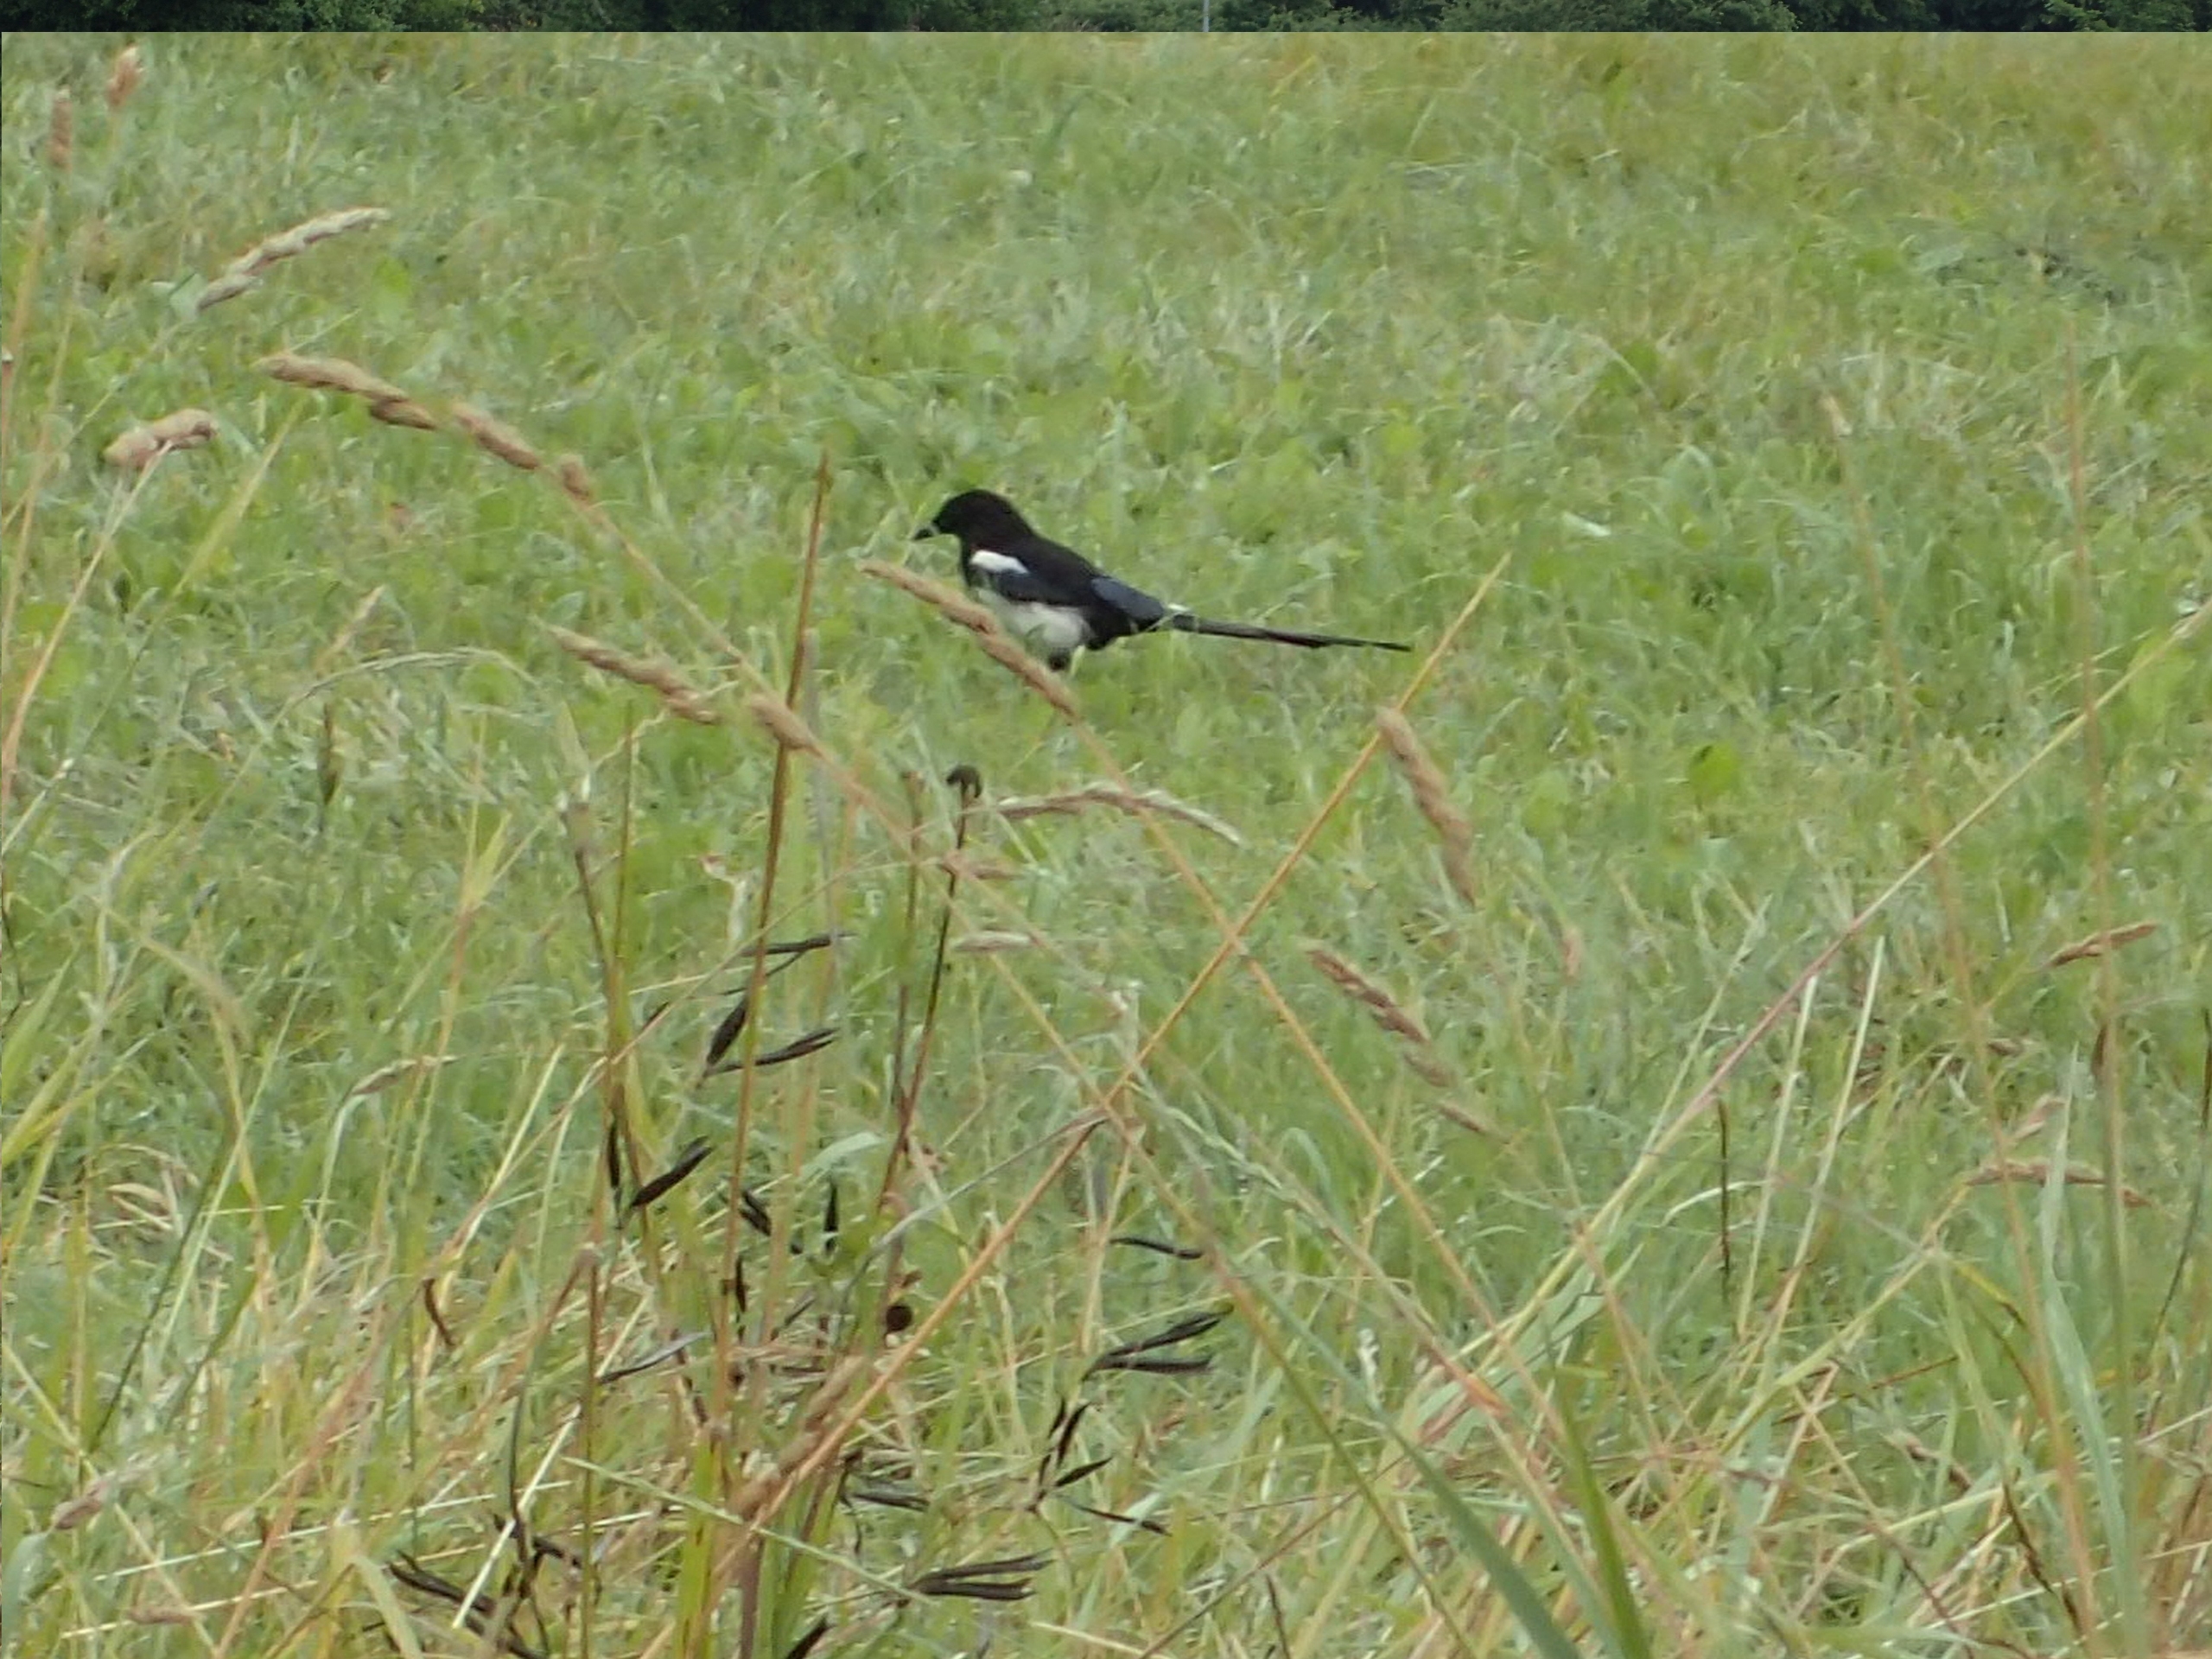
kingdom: Animalia
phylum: Chordata
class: Aves
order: Passeriformes
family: Corvidae
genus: Pica
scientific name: Pica pica
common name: Husskade
